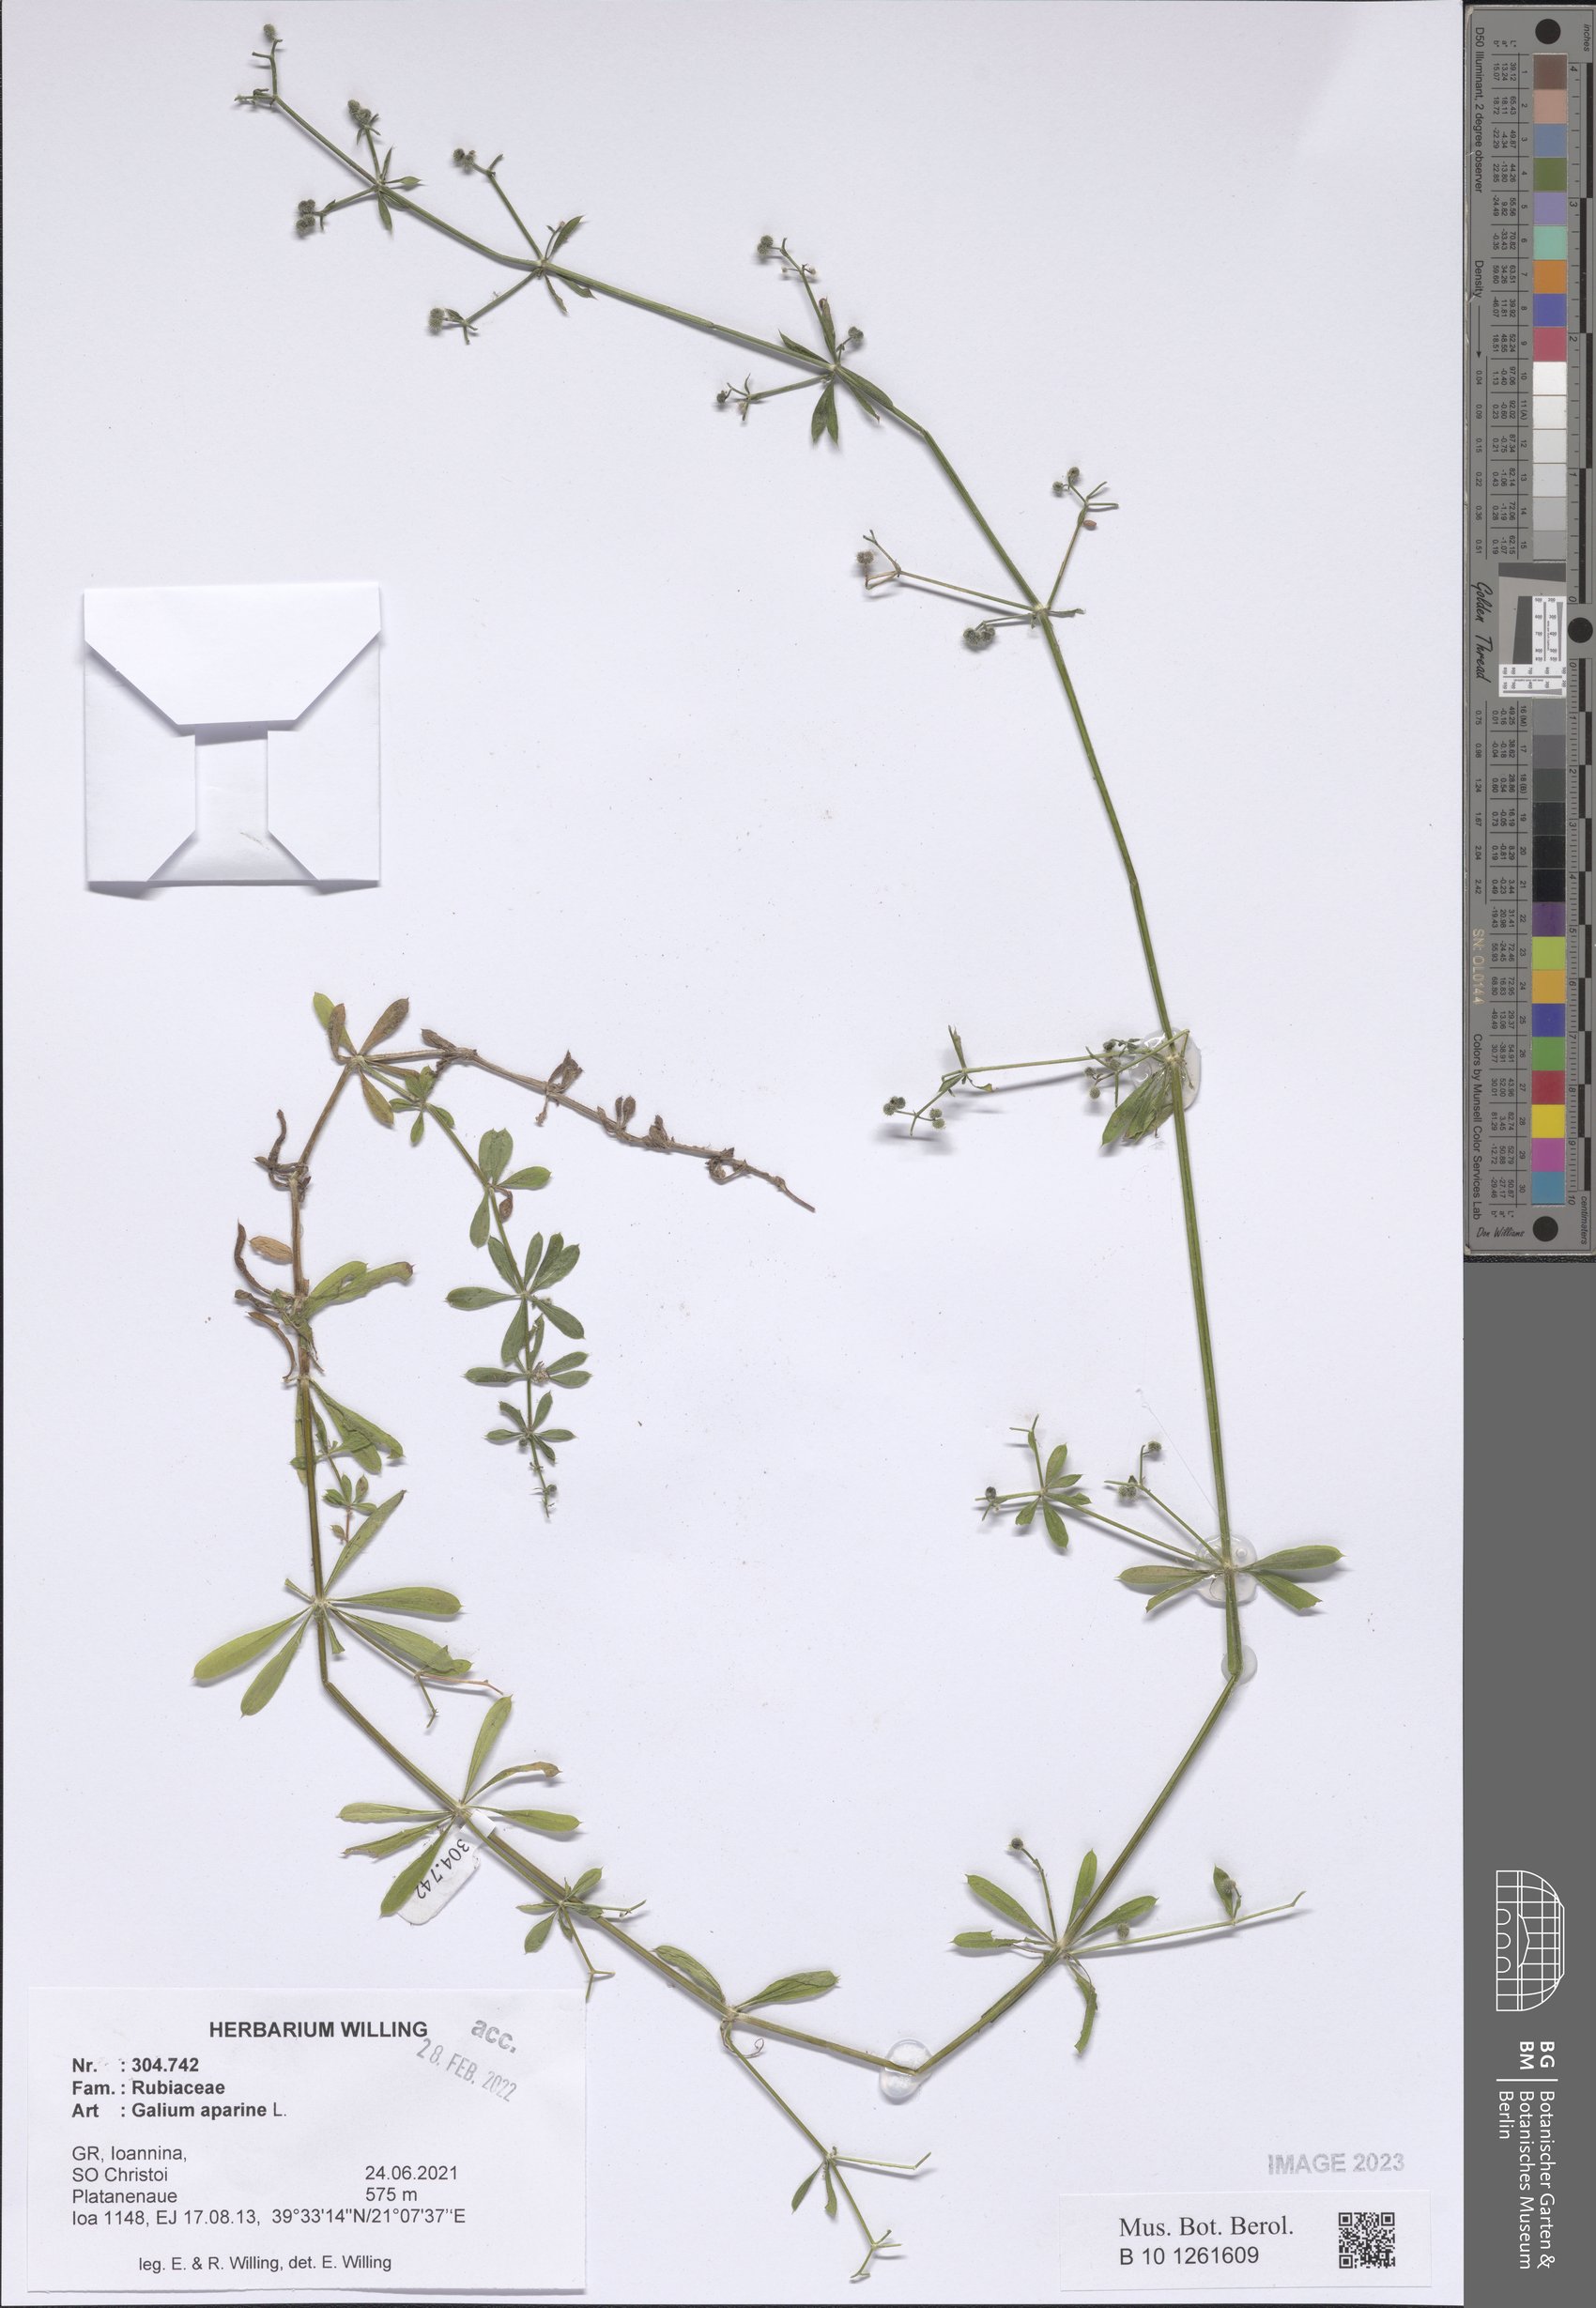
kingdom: Plantae
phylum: Tracheophyta
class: Magnoliopsida
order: Gentianales
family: Rubiaceae
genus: Galium
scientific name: Galium aparine
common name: Cleavers
